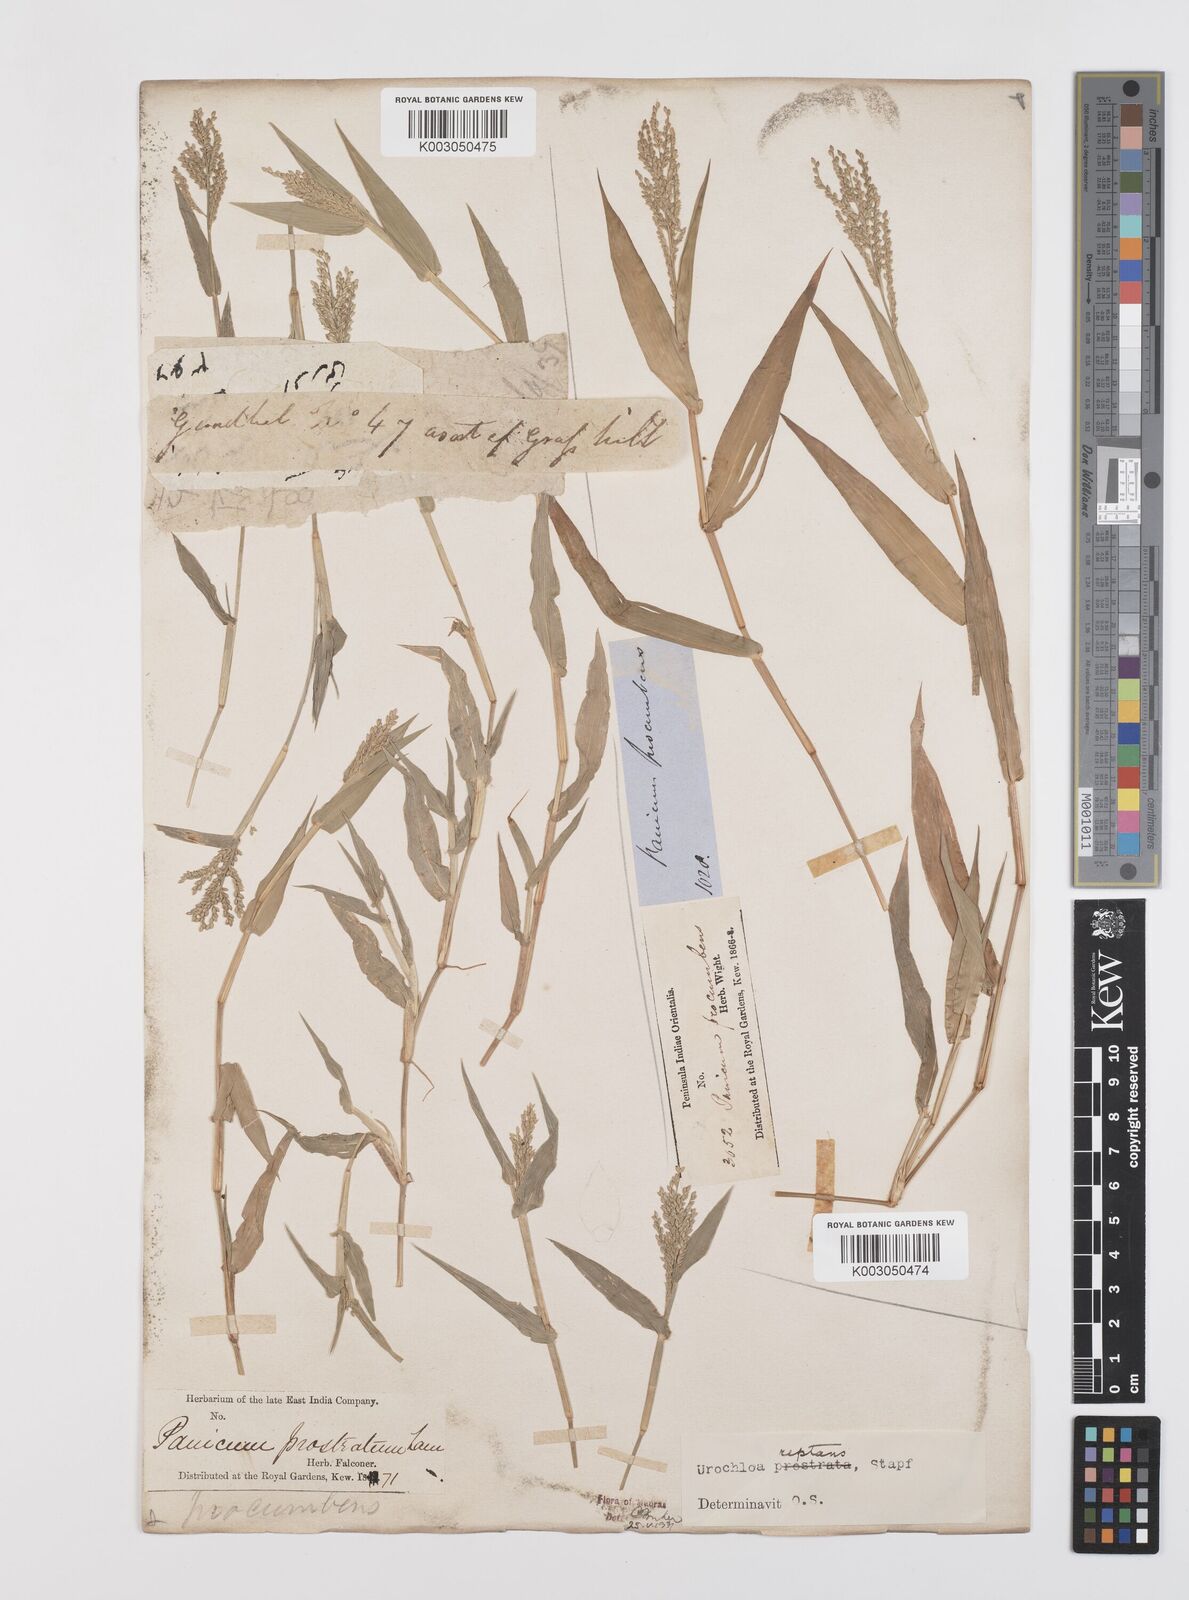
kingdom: Plantae
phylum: Tracheophyta
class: Liliopsida
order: Poales
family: Poaceae
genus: Urochloa
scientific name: Urochloa reptans
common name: Sprawling signalgrass
